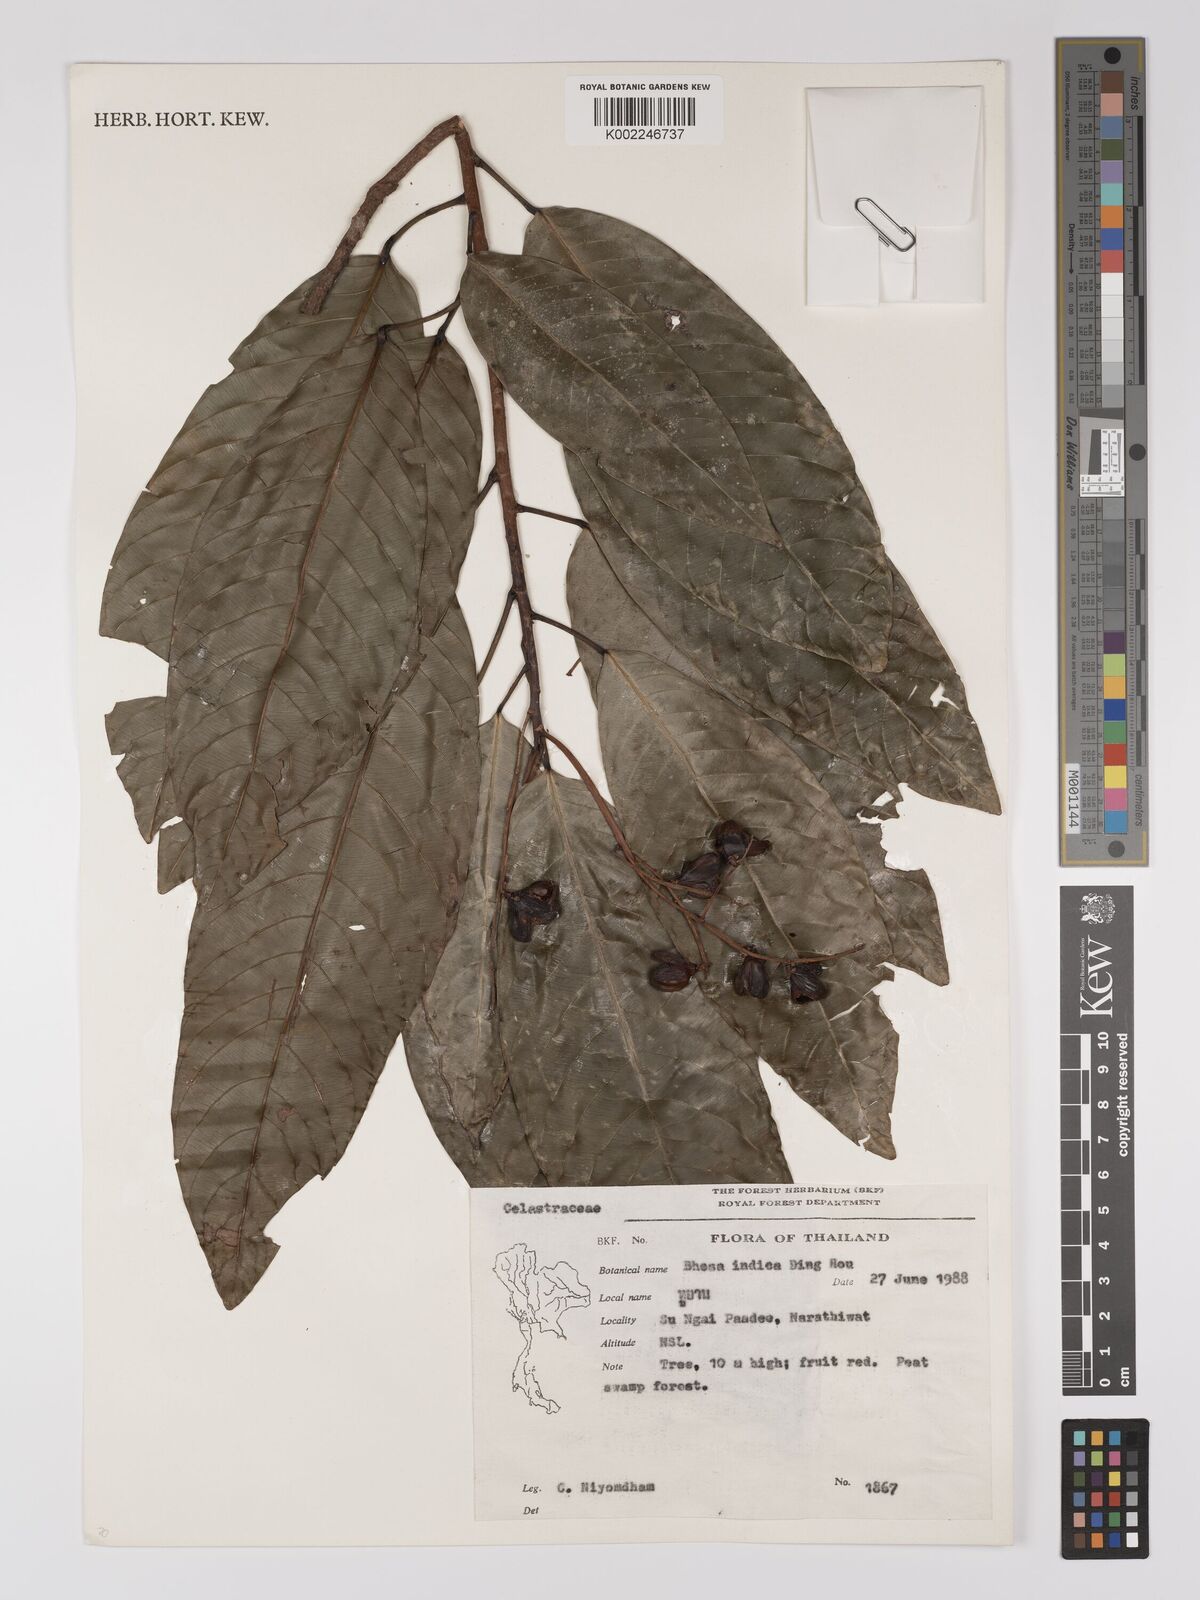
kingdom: Plantae
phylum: Tracheophyta
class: Magnoliopsida
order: Malpighiales
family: Centroplacaceae
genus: Bhesa
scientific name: Bhesa paniculata
